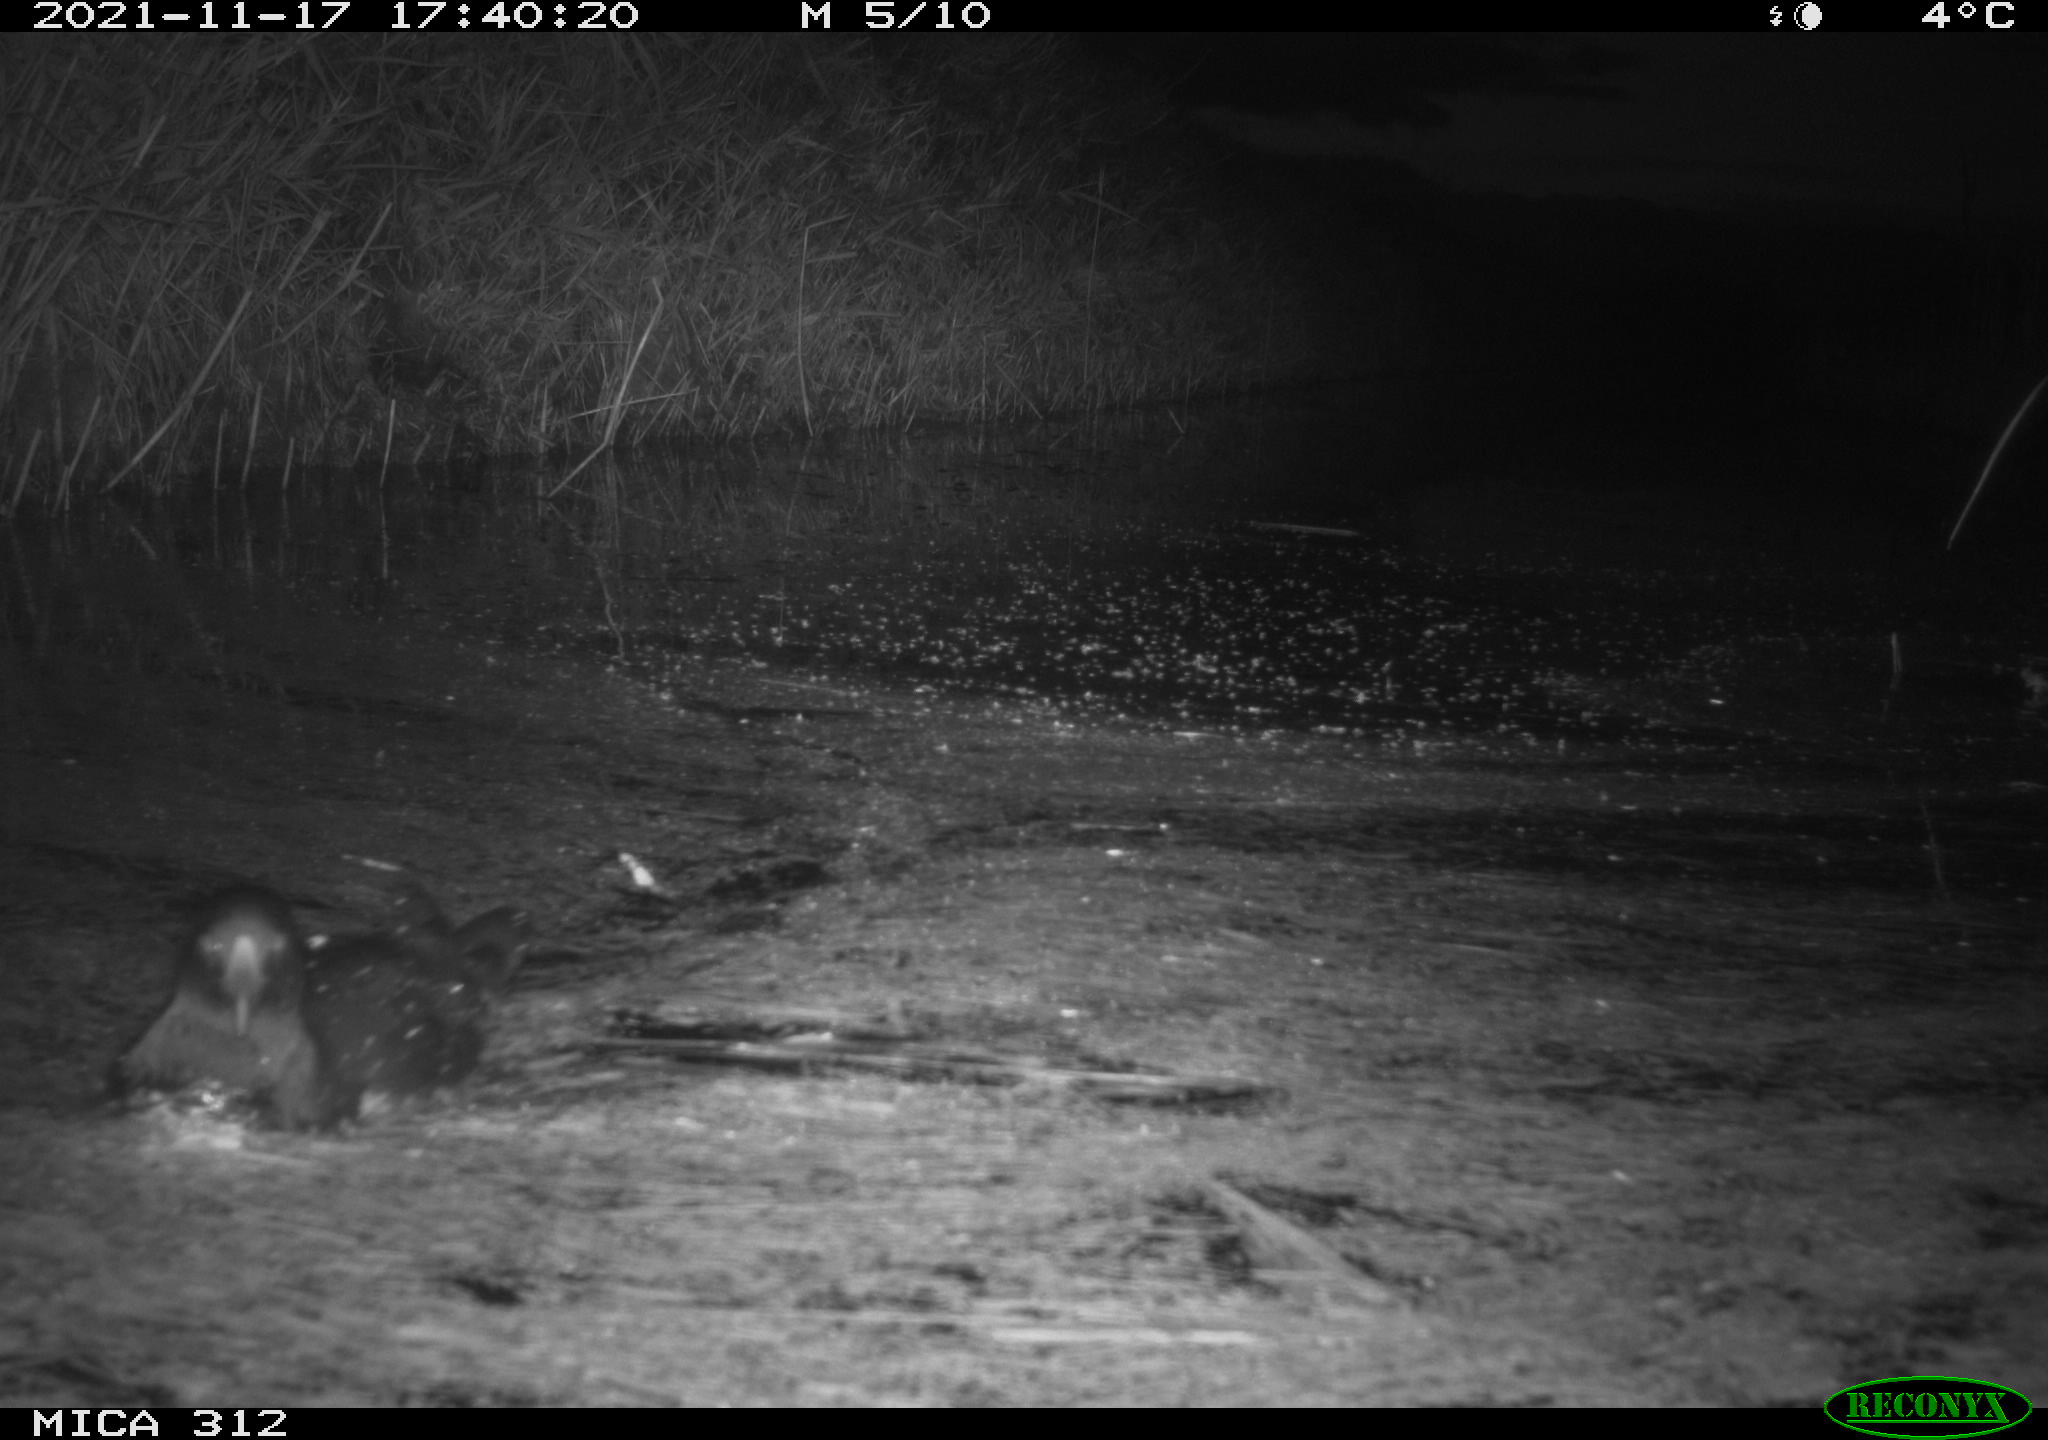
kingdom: Animalia
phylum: Chordata
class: Aves
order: Gruiformes
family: Rallidae
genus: Fulica
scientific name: Fulica atra
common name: Eurasian coot
